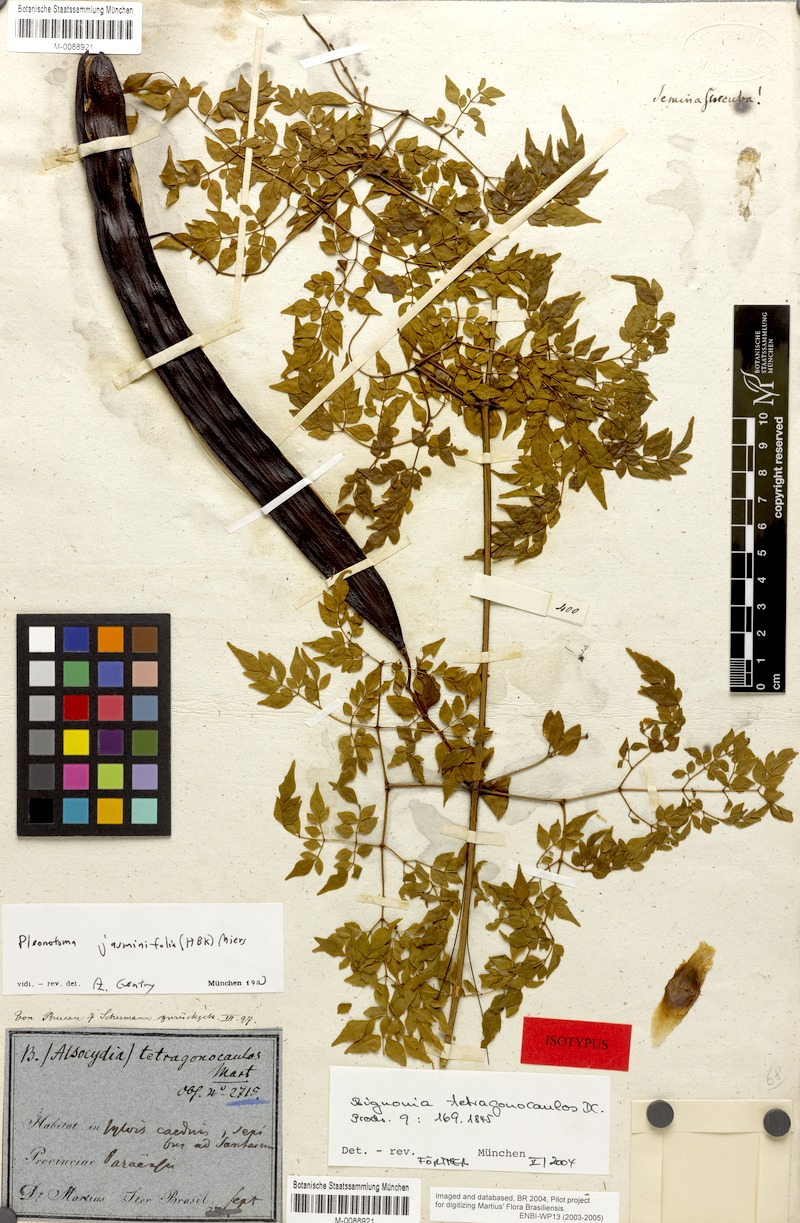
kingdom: Plantae
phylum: Tracheophyta
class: Magnoliopsida
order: Lamiales
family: Bignoniaceae
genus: Pleonotoma
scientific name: Pleonotoma jasminifolia
